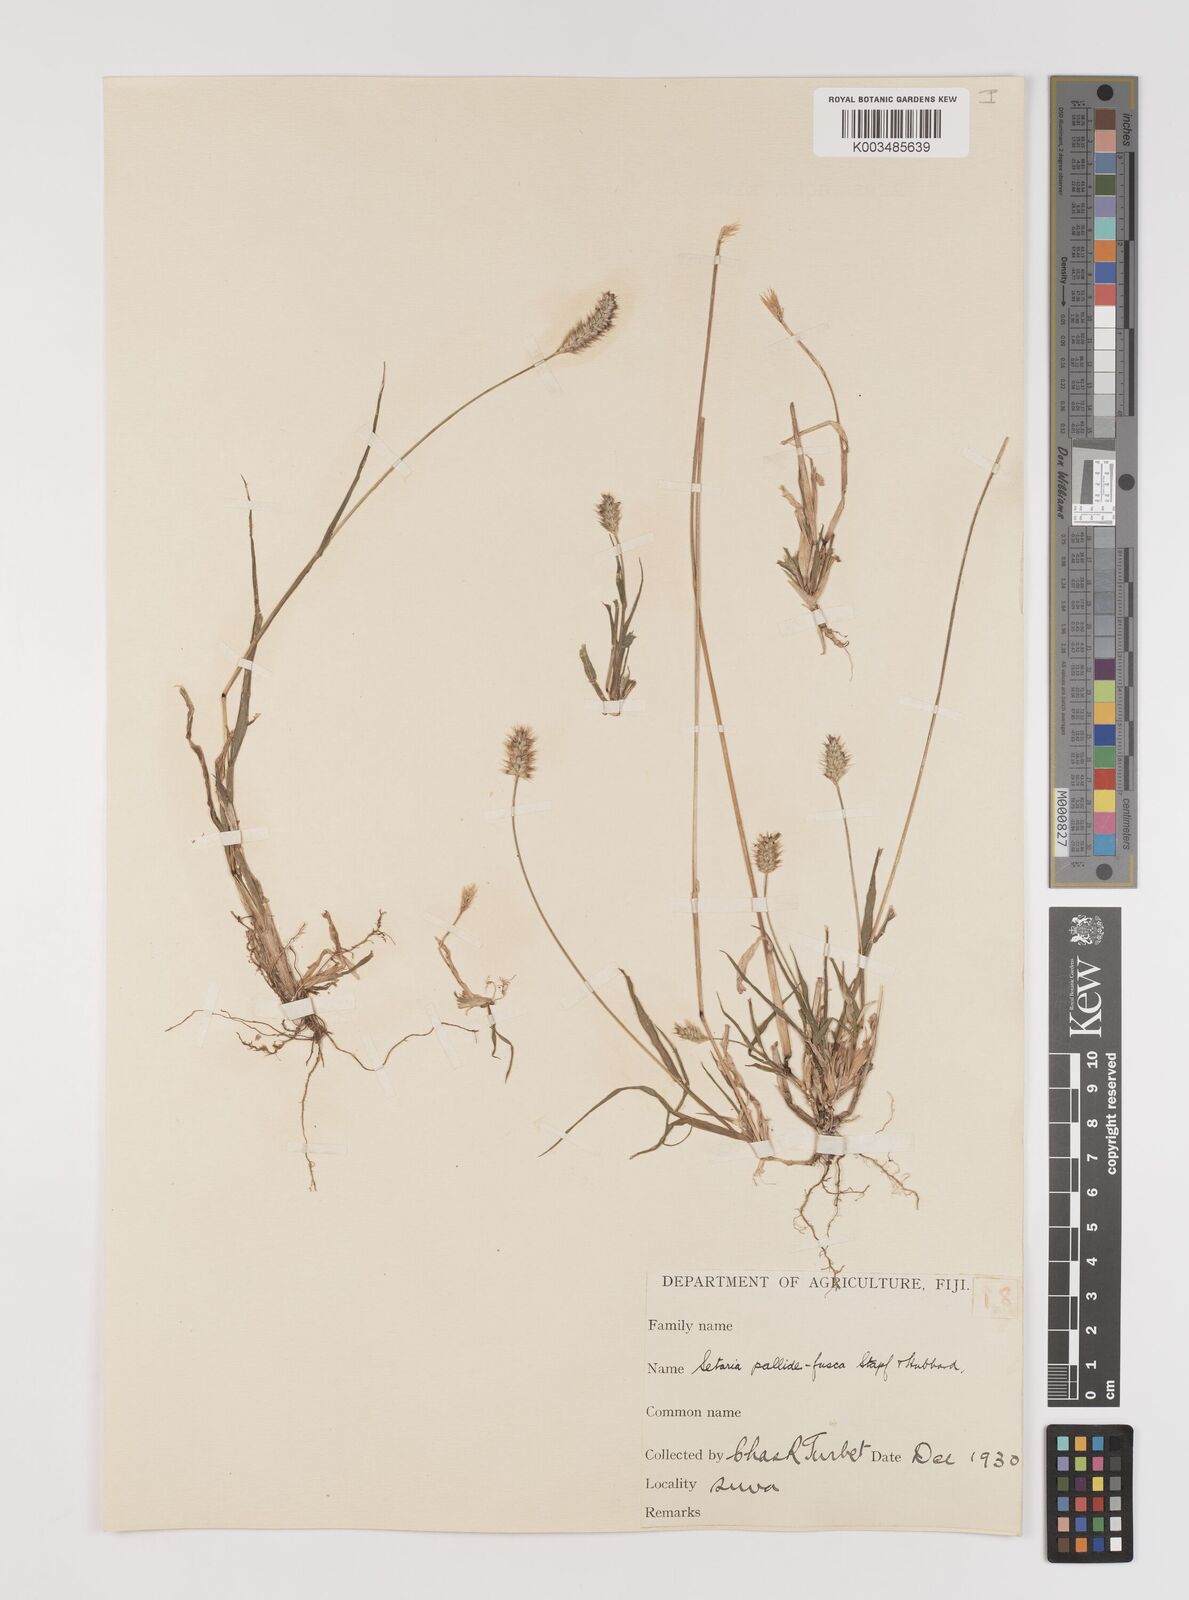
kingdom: Plantae
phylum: Tracheophyta
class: Liliopsida
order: Poales
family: Poaceae
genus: Setaria
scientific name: Setaria pumila
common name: Yellow bristle-grass
